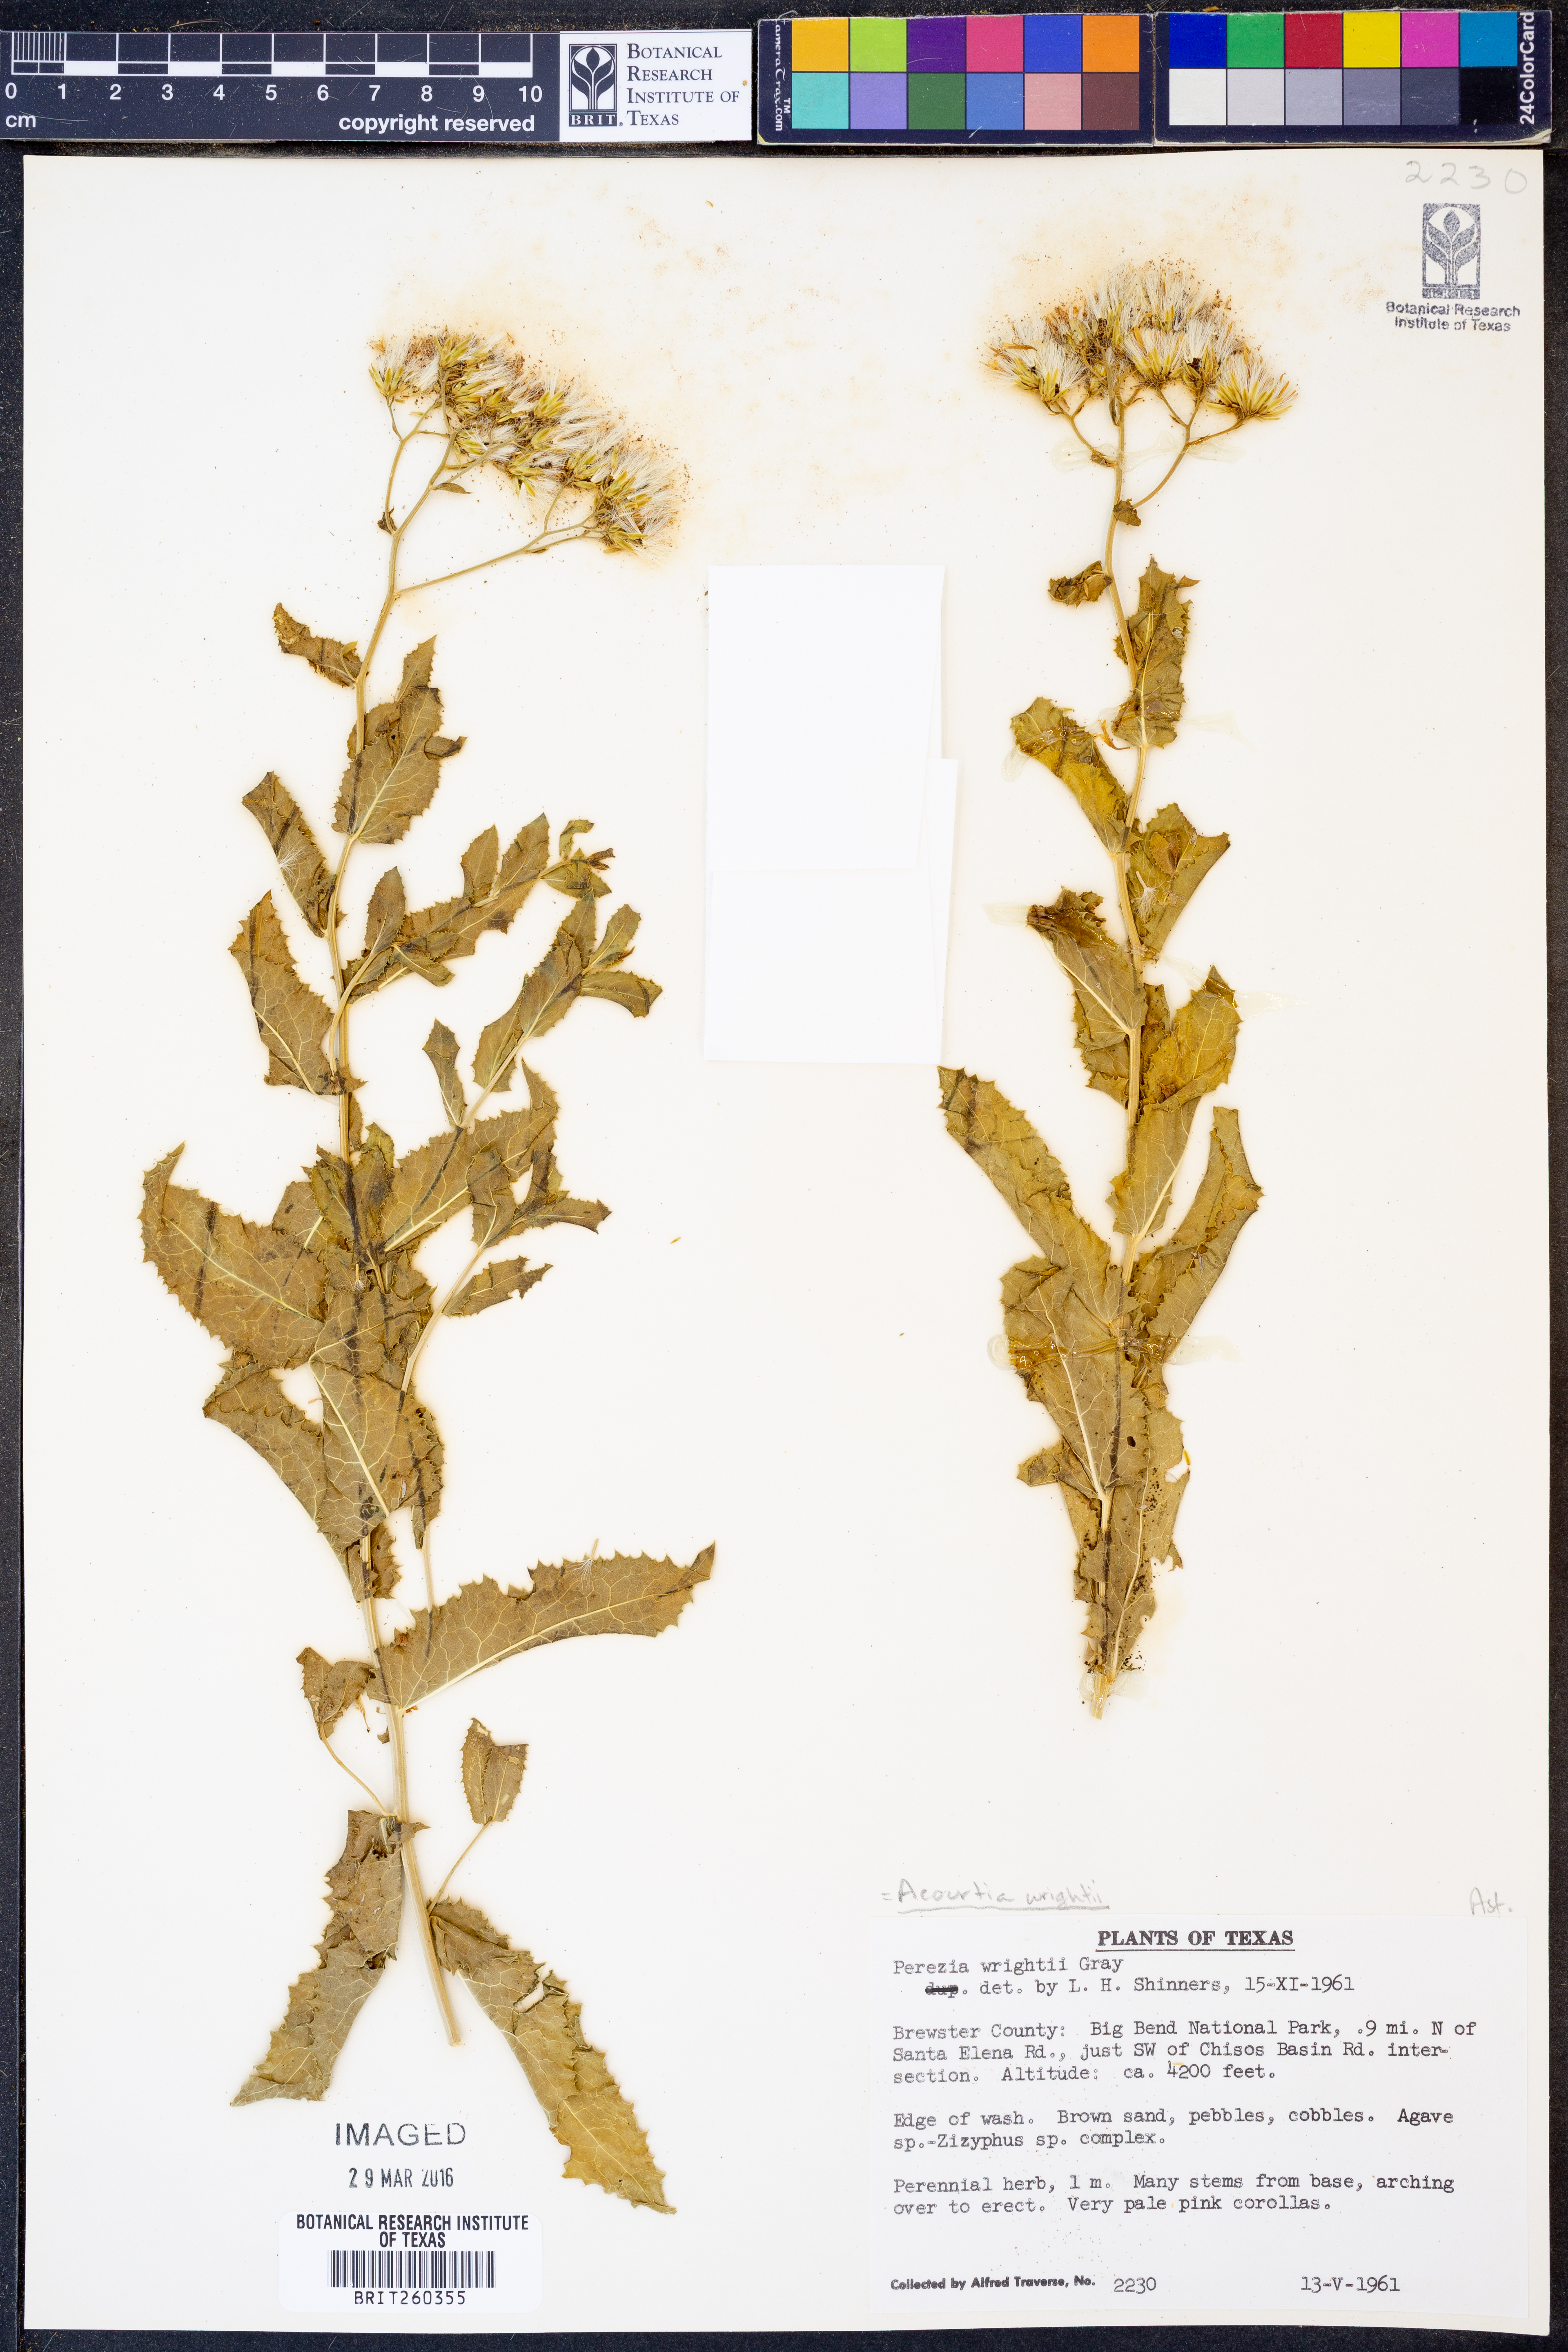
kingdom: Plantae
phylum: Tracheophyta
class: Magnoliopsida
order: Asterales
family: Asteraceae
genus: Acourtia
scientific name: Acourtia wrightii
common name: Brownfoot
